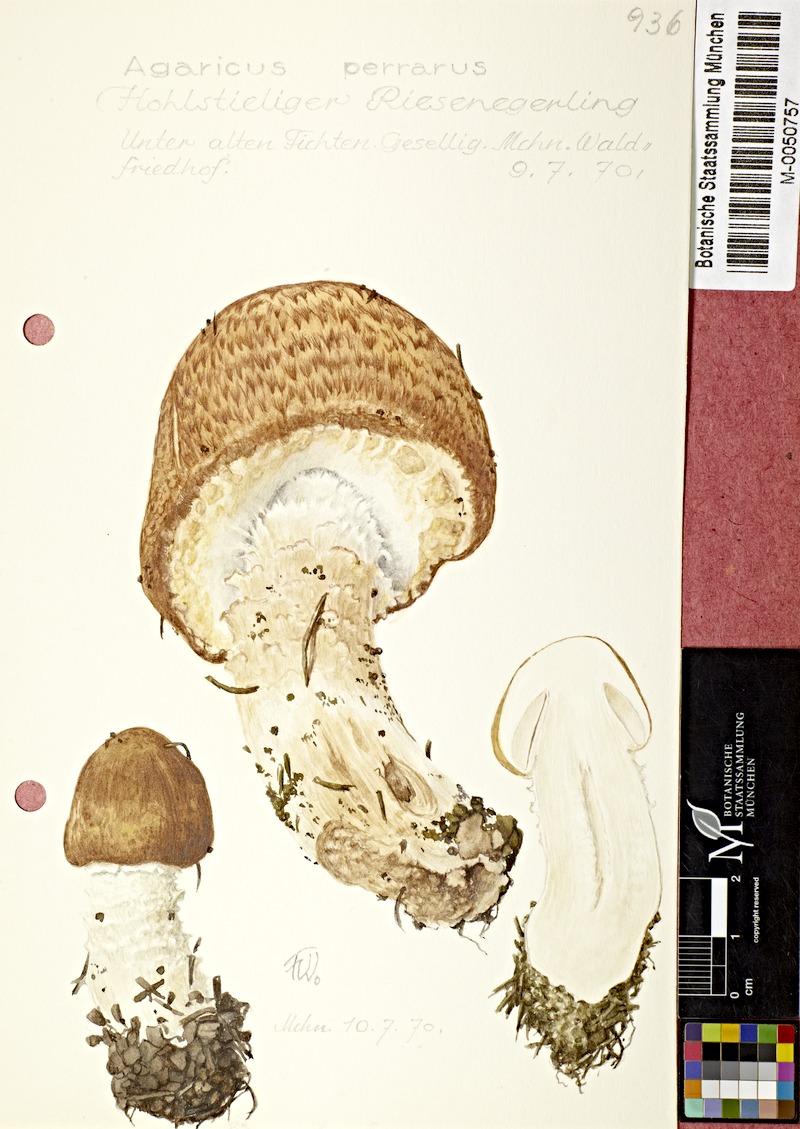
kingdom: Fungi
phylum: Basidiomycota
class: Agaricomycetes
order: Agaricales
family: Agaricaceae
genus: Agaricus
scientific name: Agaricus augustus
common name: Prince
